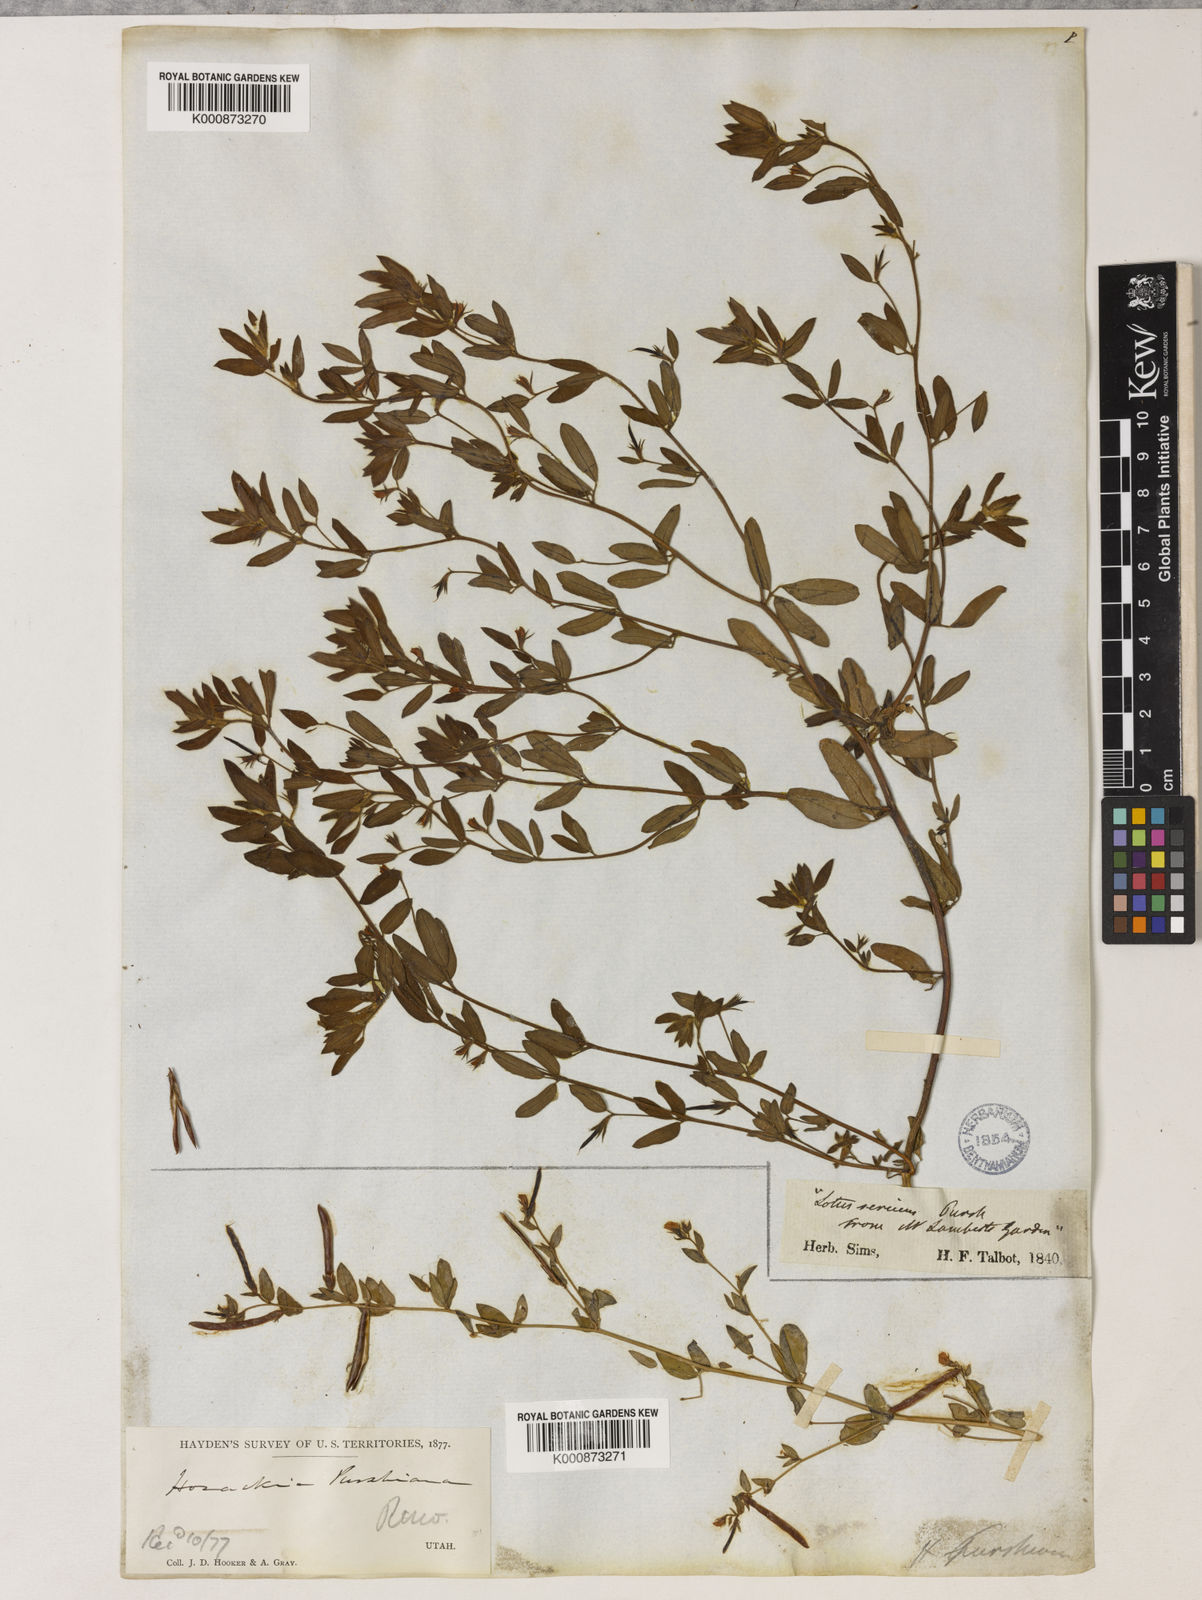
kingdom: Plantae
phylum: Tracheophyta
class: Magnoliopsida
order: Fabales
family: Fabaceae
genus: Collaea
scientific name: Collaea speciosa
